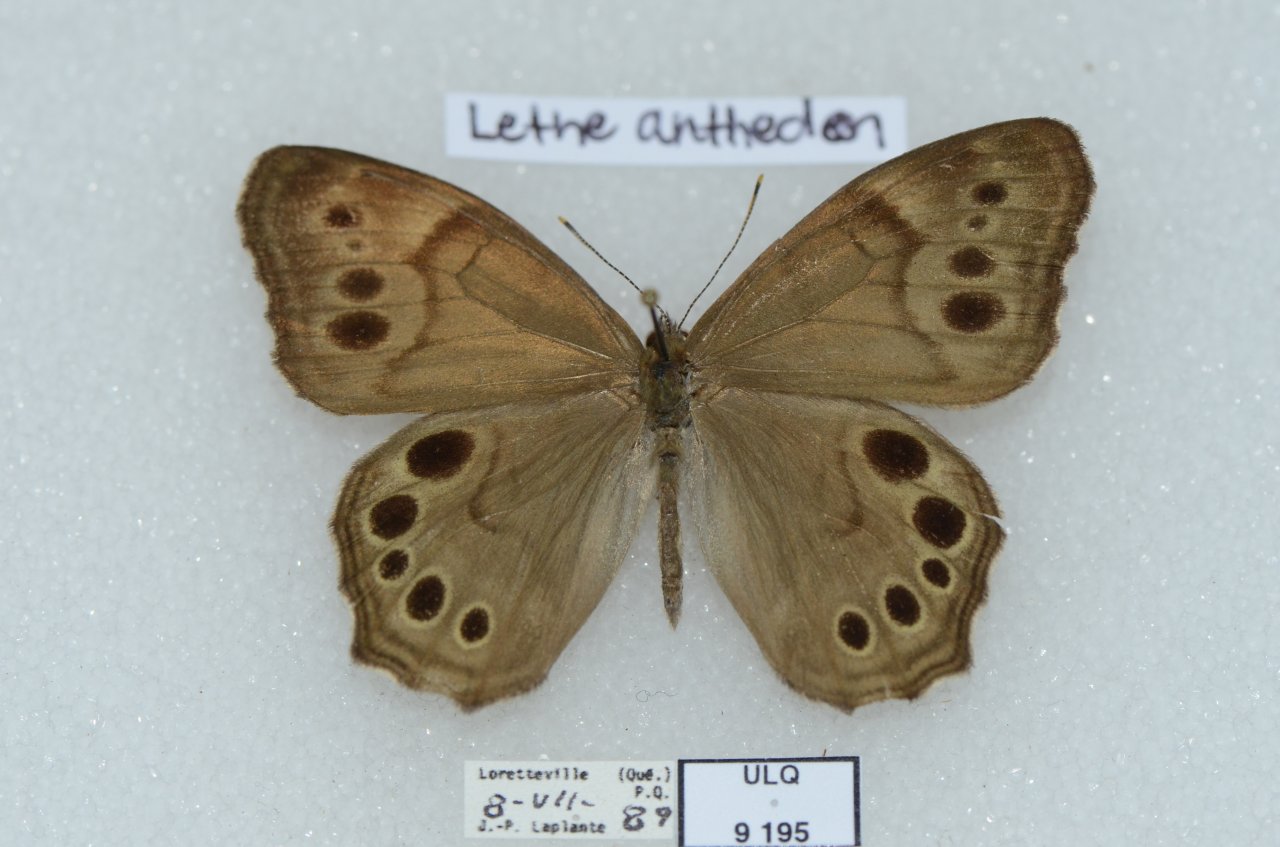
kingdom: Animalia
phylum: Arthropoda
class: Insecta
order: Lepidoptera
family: Nymphalidae
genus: Lethe
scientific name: Lethe anthedon
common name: Northern Pearly-Eye
